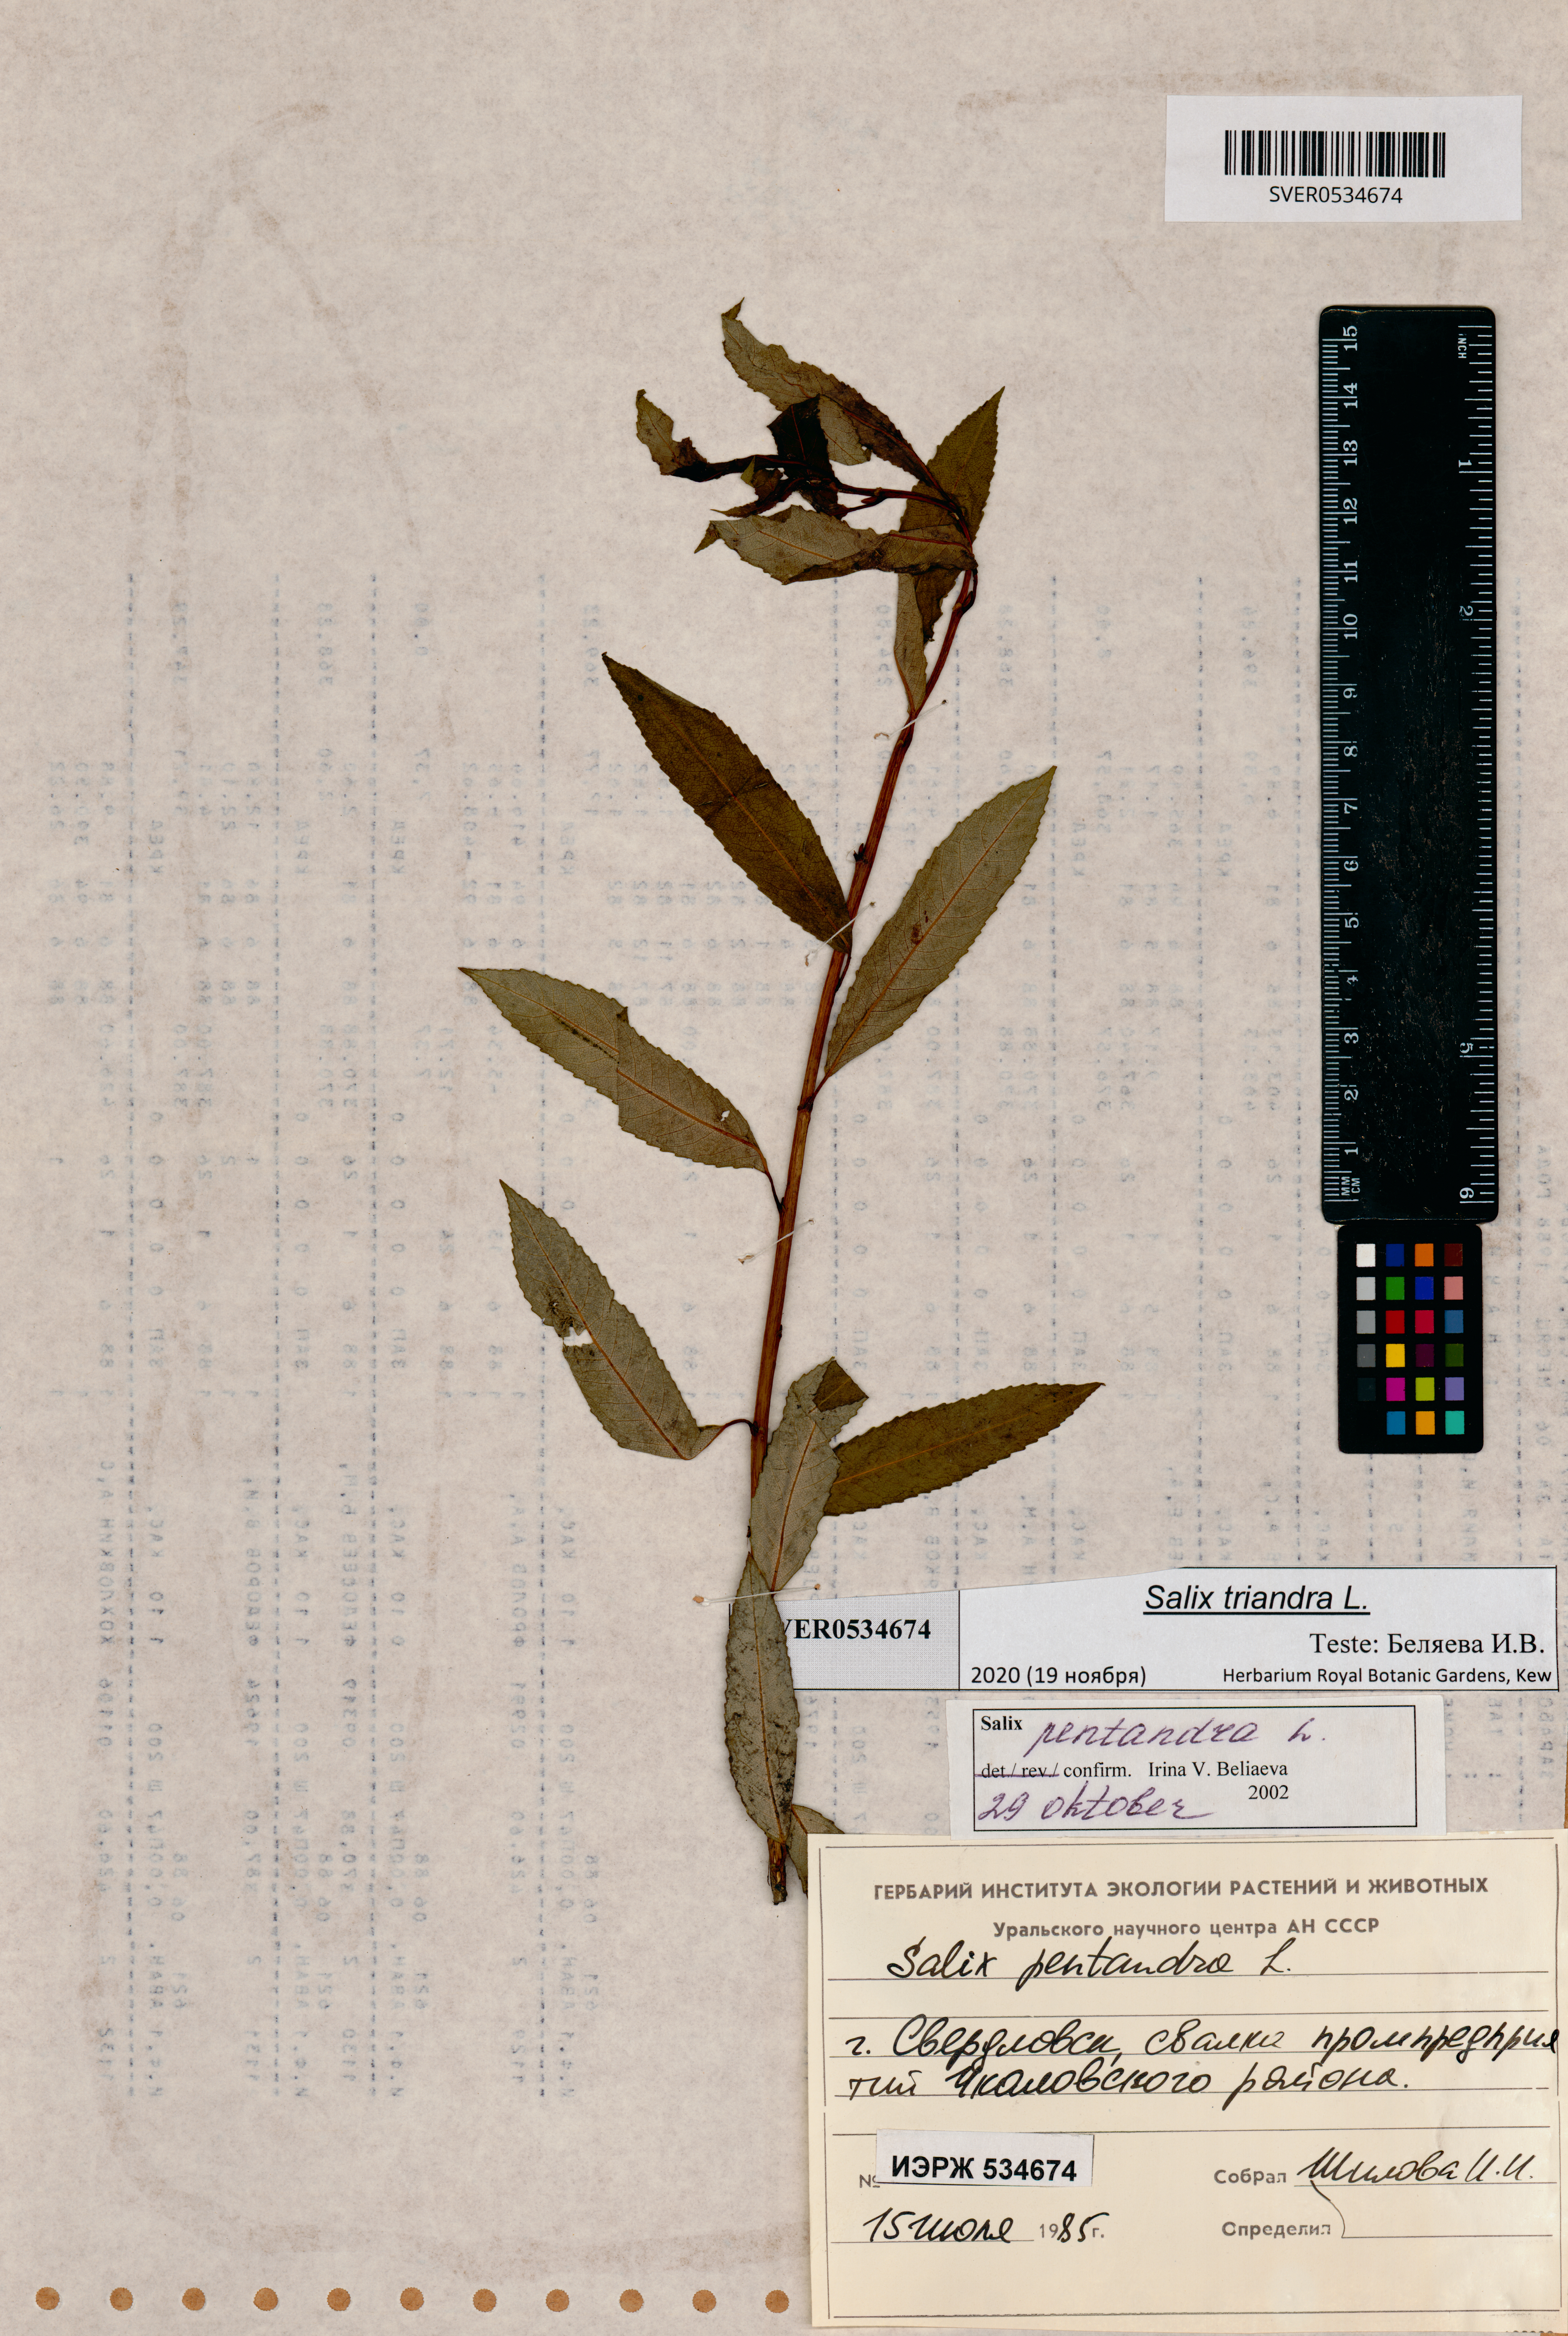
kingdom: Plantae
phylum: Tracheophyta
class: Magnoliopsida
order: Malpighiales
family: Salicaceae
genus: Salix
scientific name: Salix triandra
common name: Almond willow
